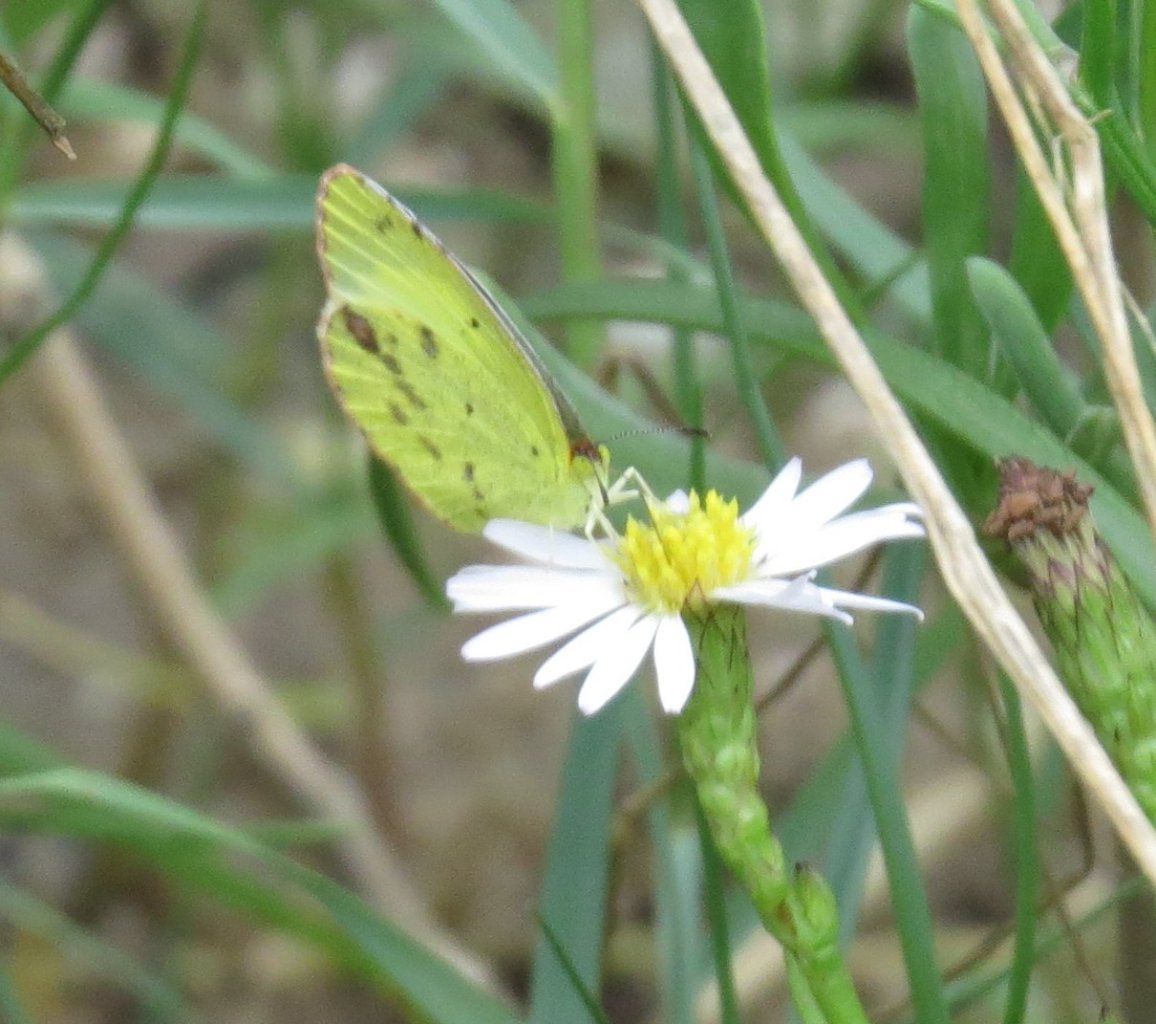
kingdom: Animalia
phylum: Arthropoda
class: Insecta
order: Lepidoptera
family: Pieridae
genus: Pyrisitia
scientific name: Pyrisitia lisa
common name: Little Yellow
